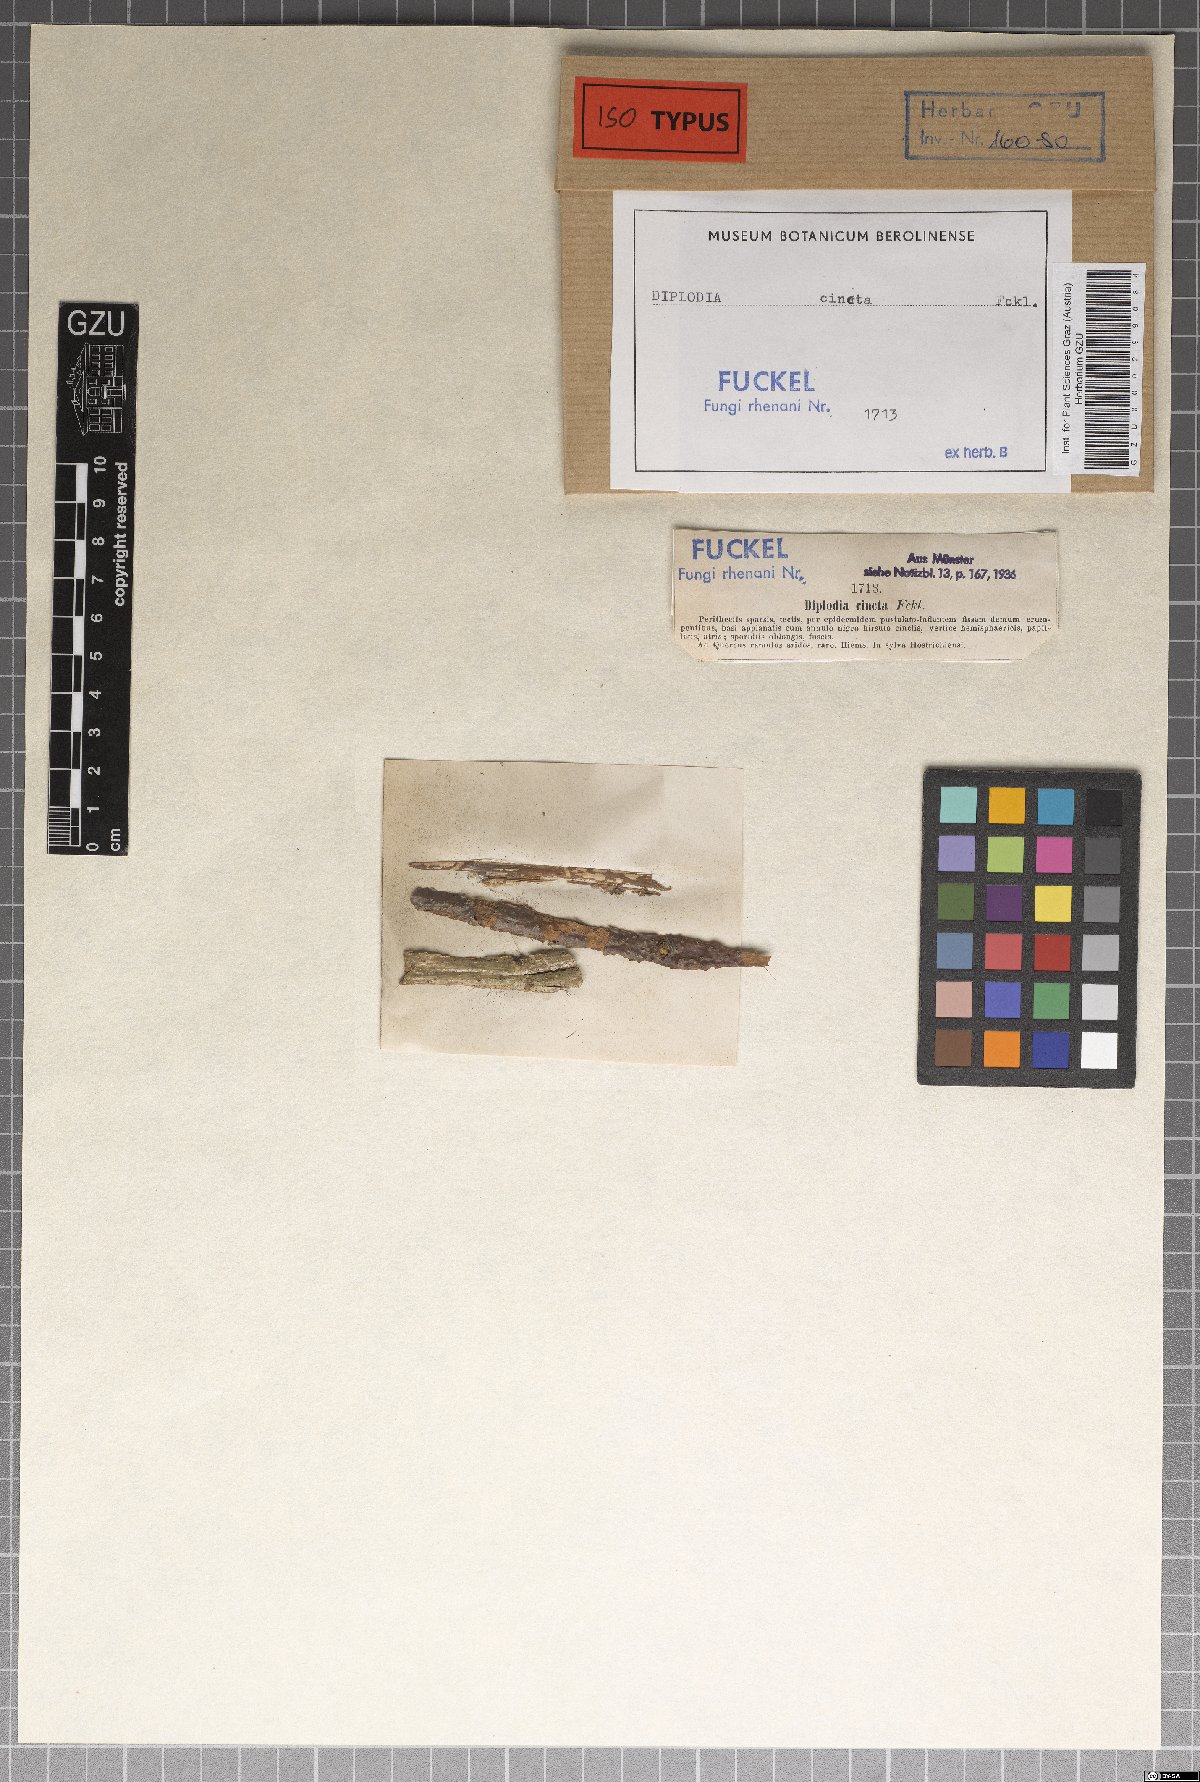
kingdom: Fungi
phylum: Ascomycota
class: Dothideomycetes
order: Botryosphaeriales
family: Botryosphaeriaceae
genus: Diplodia
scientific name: Diplodia
